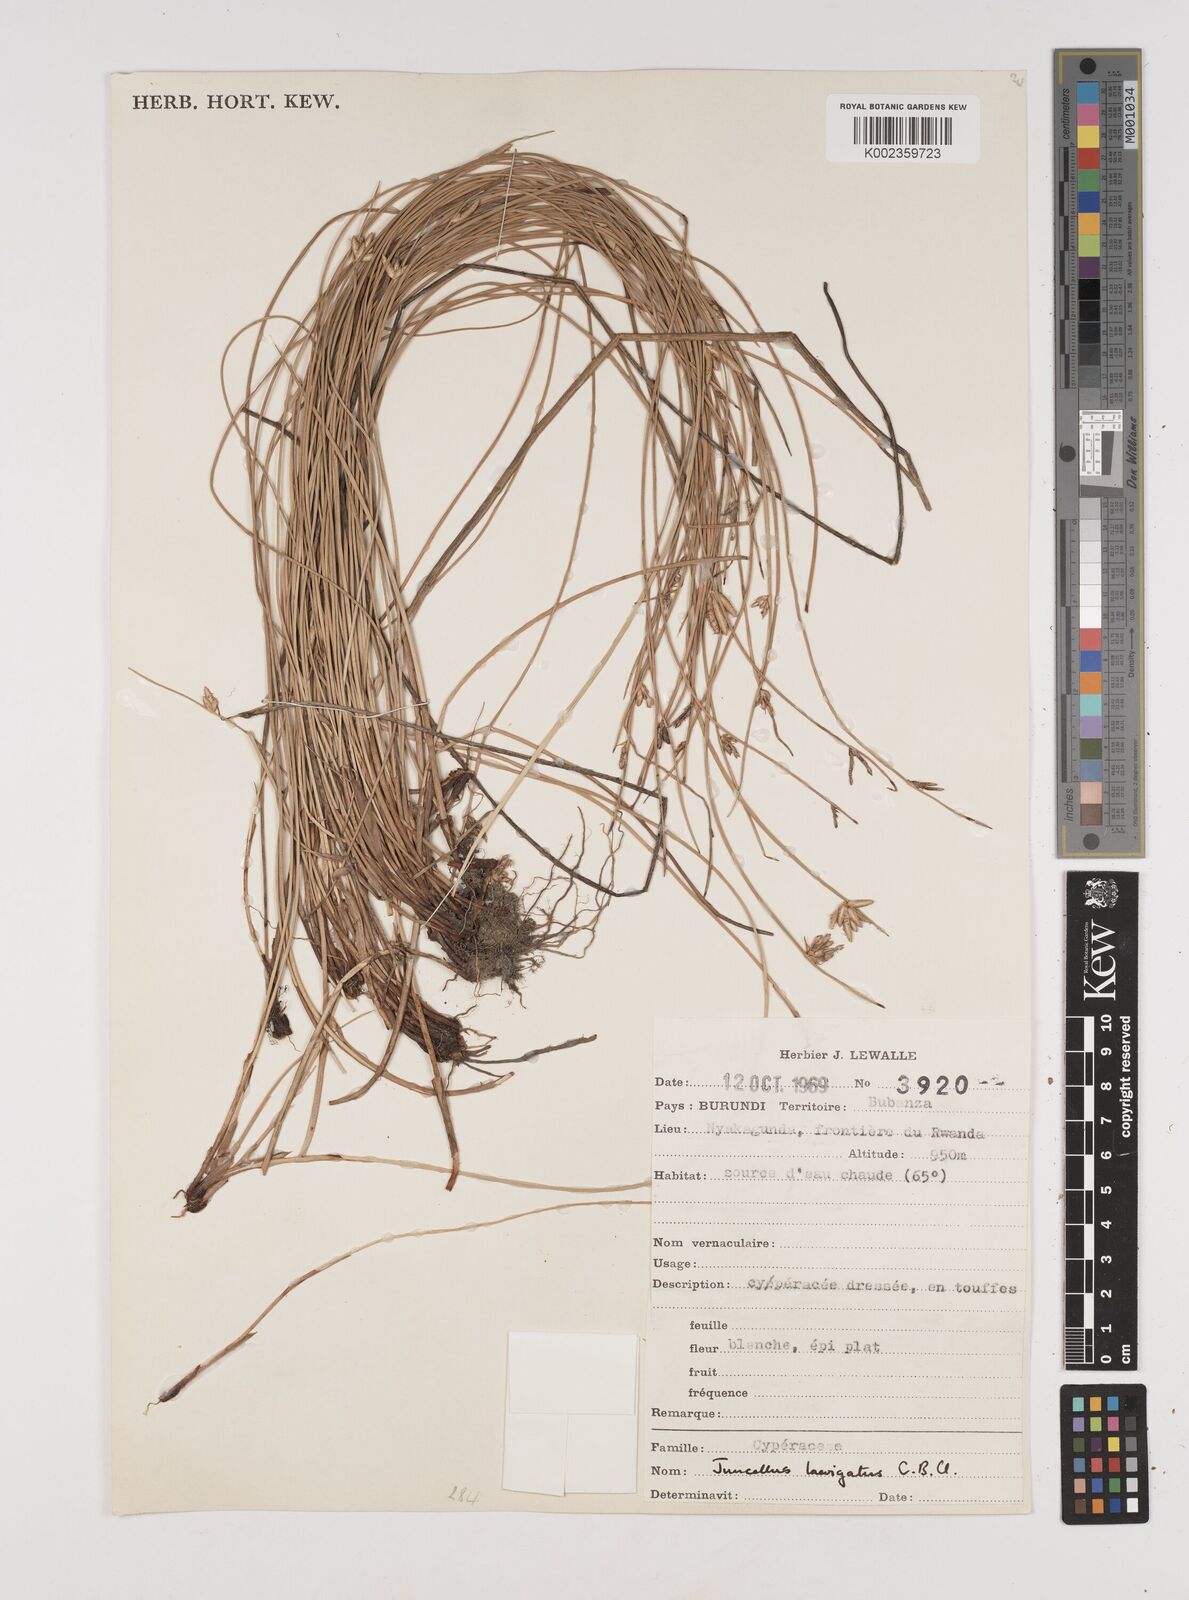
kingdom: Plantae
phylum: Tracheophyta
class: Liliopsida
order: Poales
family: Cyperaceae
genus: Cyperus
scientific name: Cyperus laevigatus
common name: Smooth flat sedge
